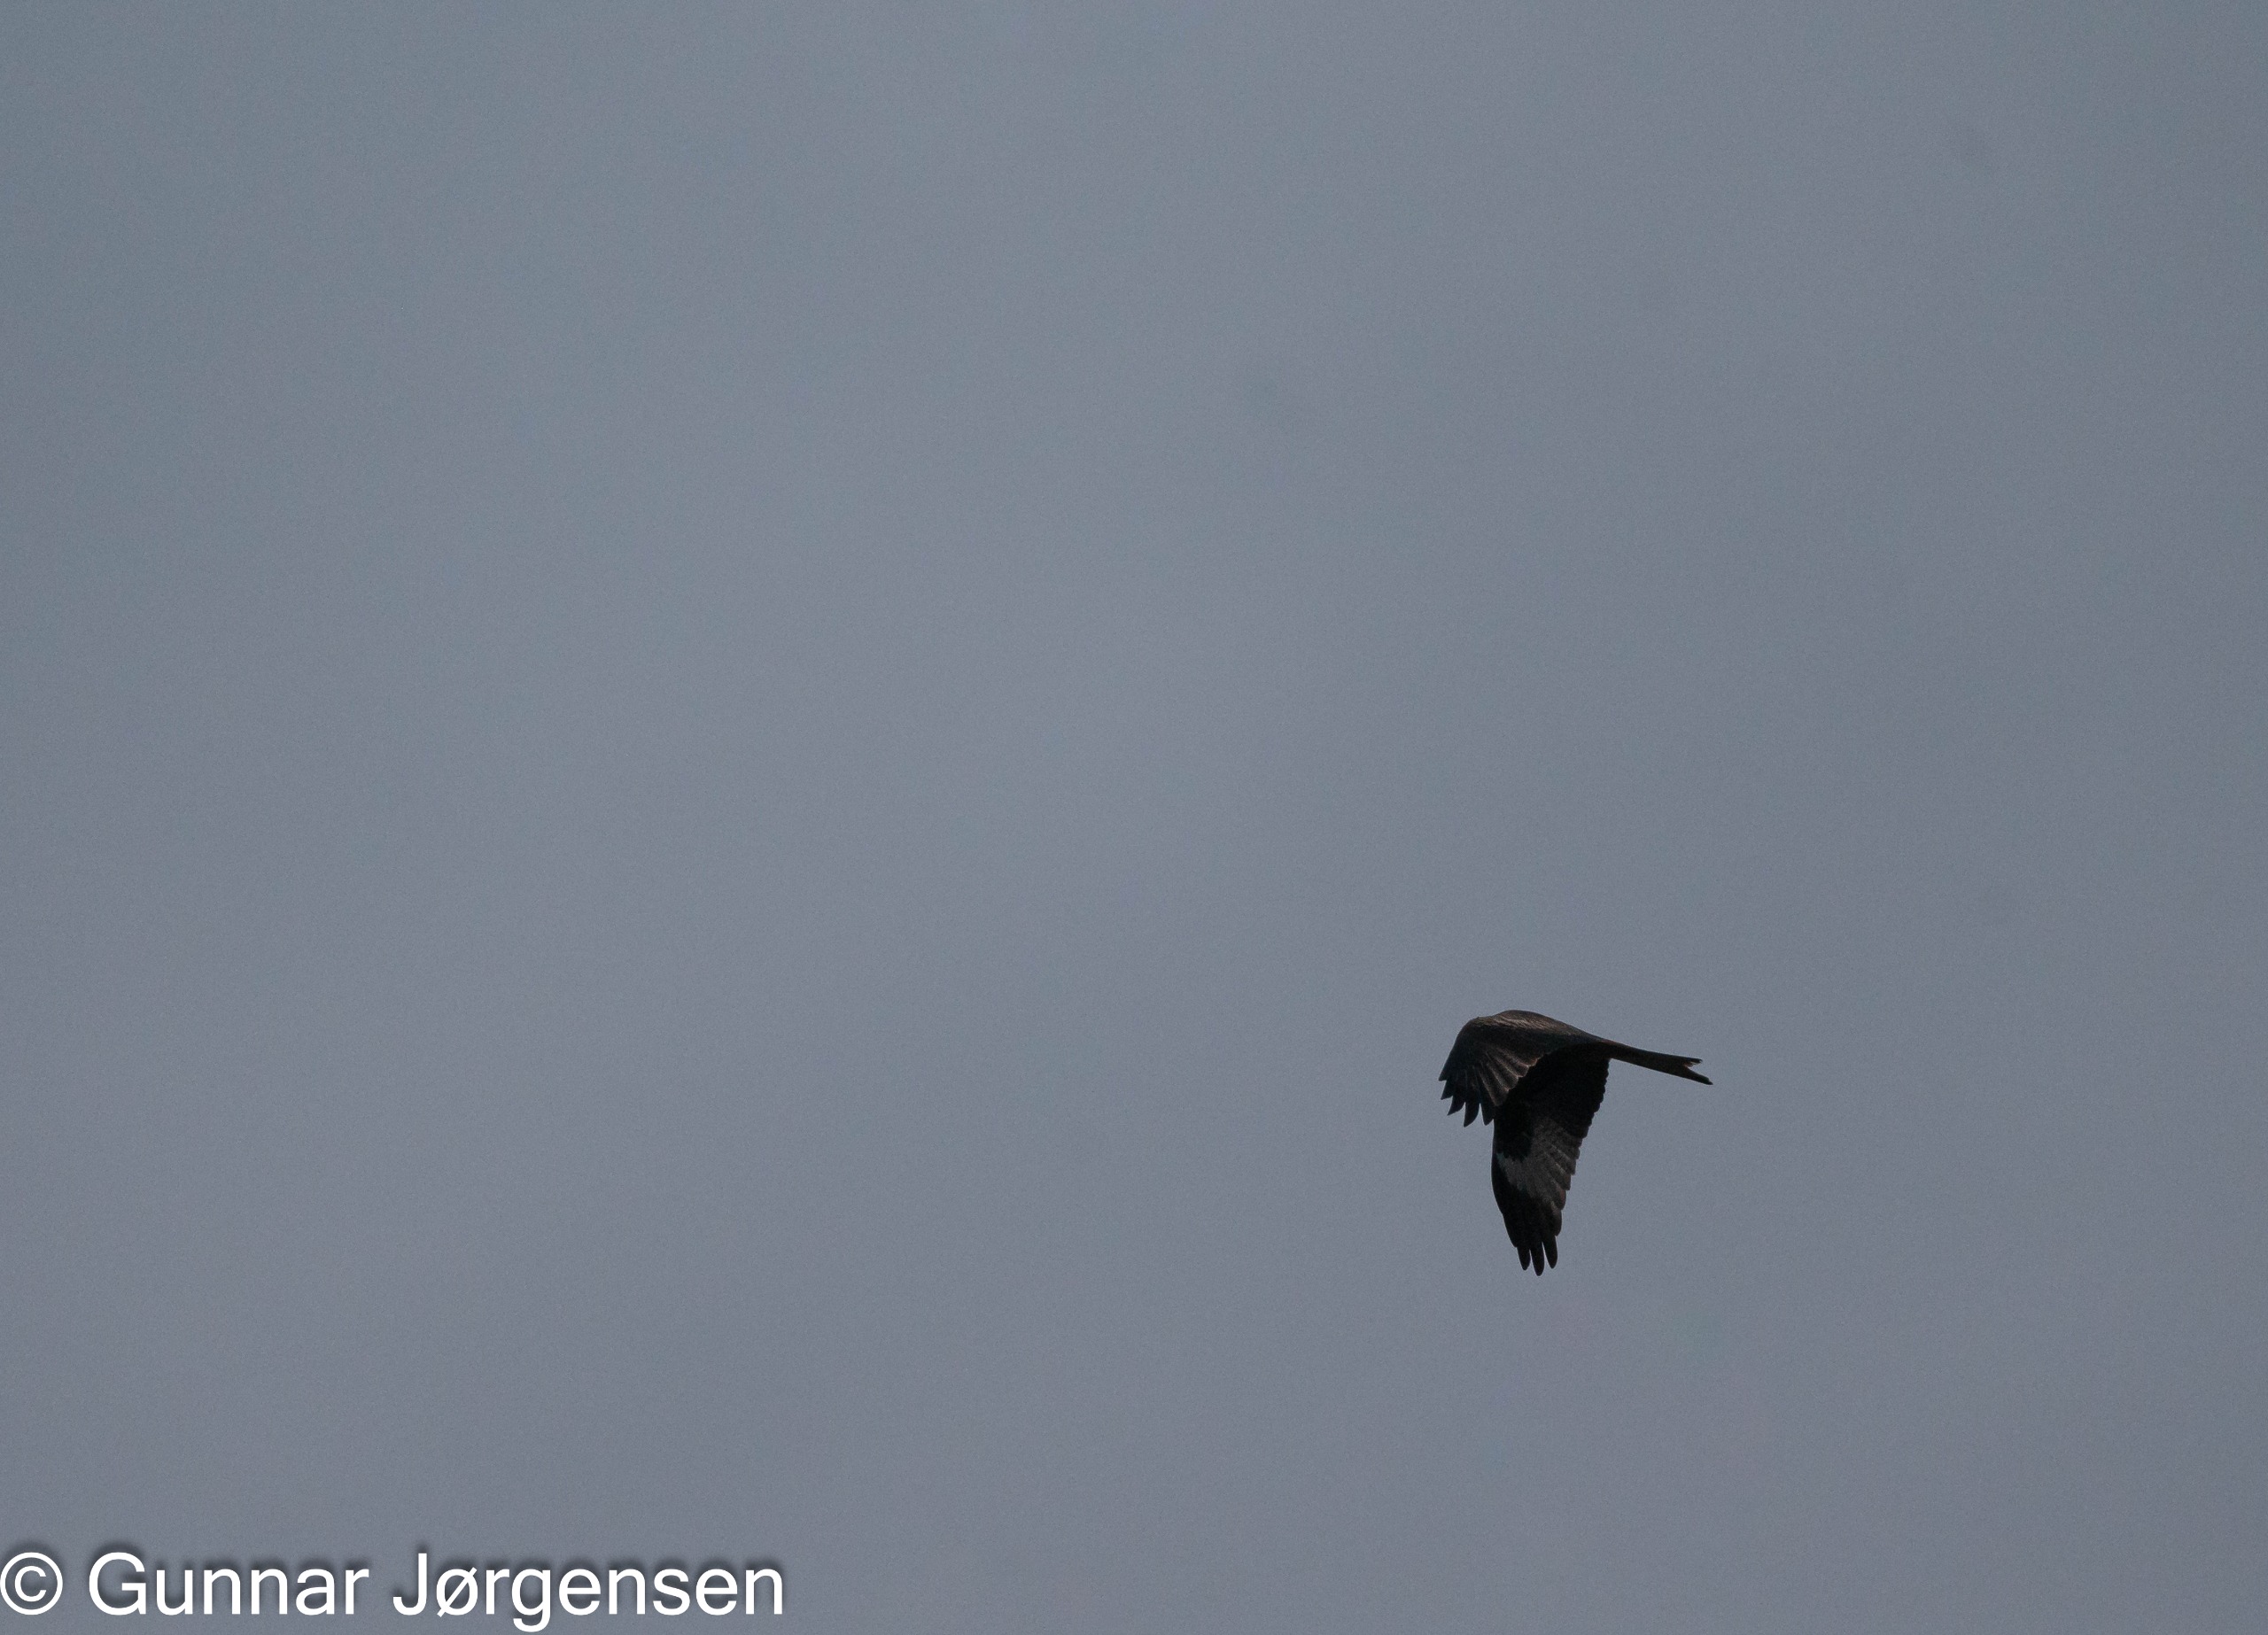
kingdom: Animalia
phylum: Chordata
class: Aves
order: Accipitriformes
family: Accipitridae
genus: Milvus
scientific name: Milvus milvus
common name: Rød glente
